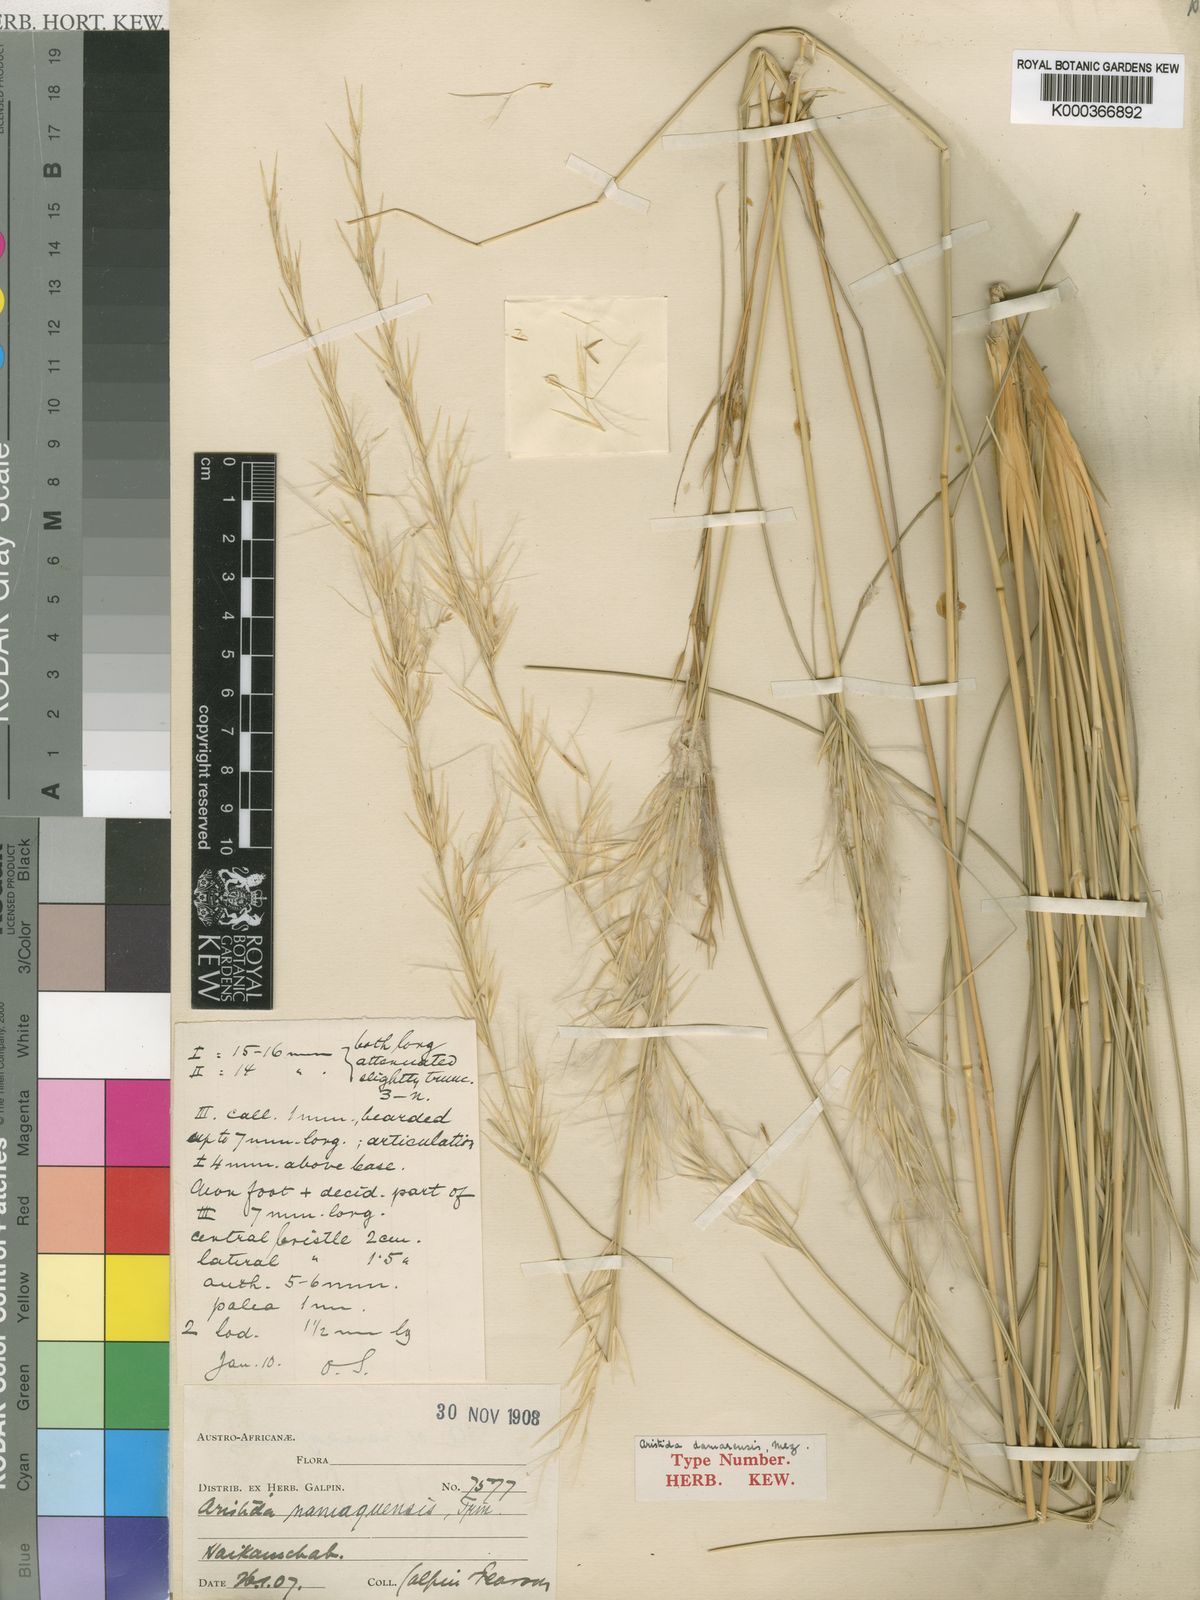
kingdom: Plantae
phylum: Tracheophyta
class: Liliopsida
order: Poales
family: Poaceae
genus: Stipagrostis
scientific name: Stipagrostis damarensis
